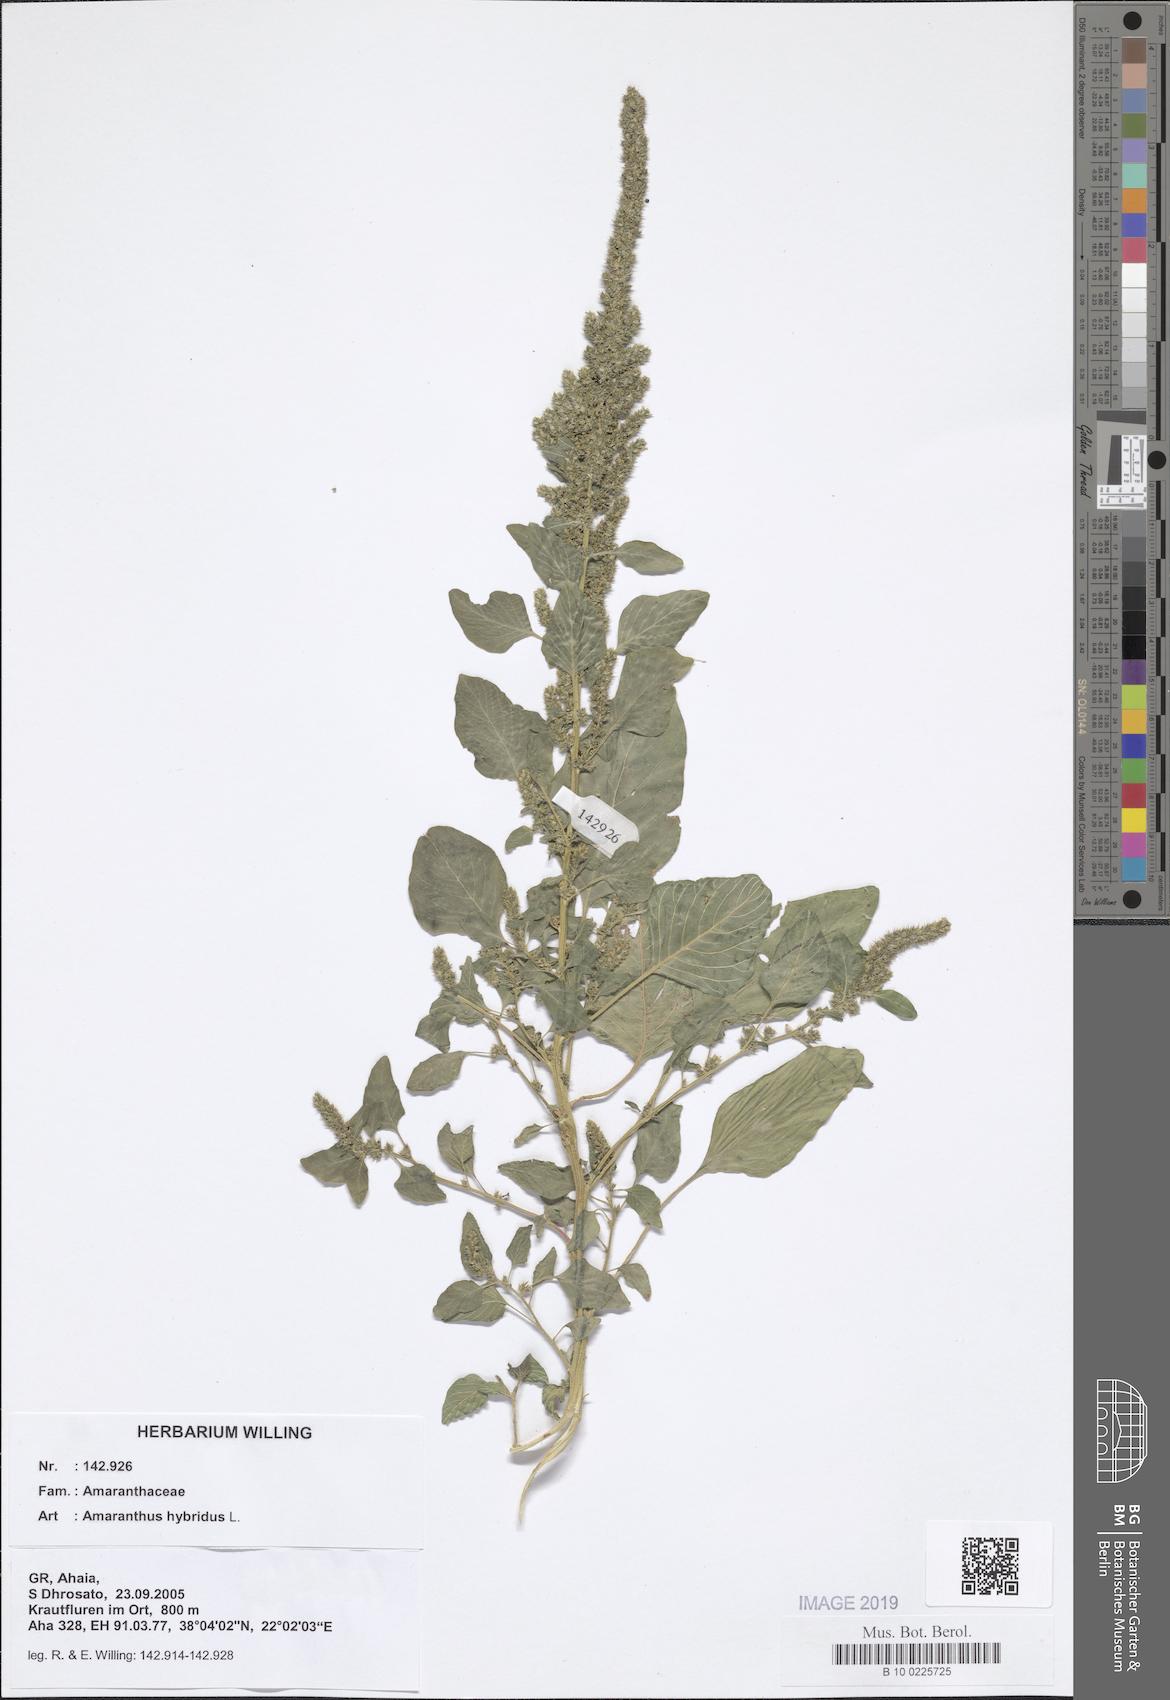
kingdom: Plantae
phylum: Tracheophyta
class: Magnoliopsida
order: Caryophyllales
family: Amaranthaceae
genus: Amaranthus
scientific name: Amaranthus hybridus
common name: Green amaranth
